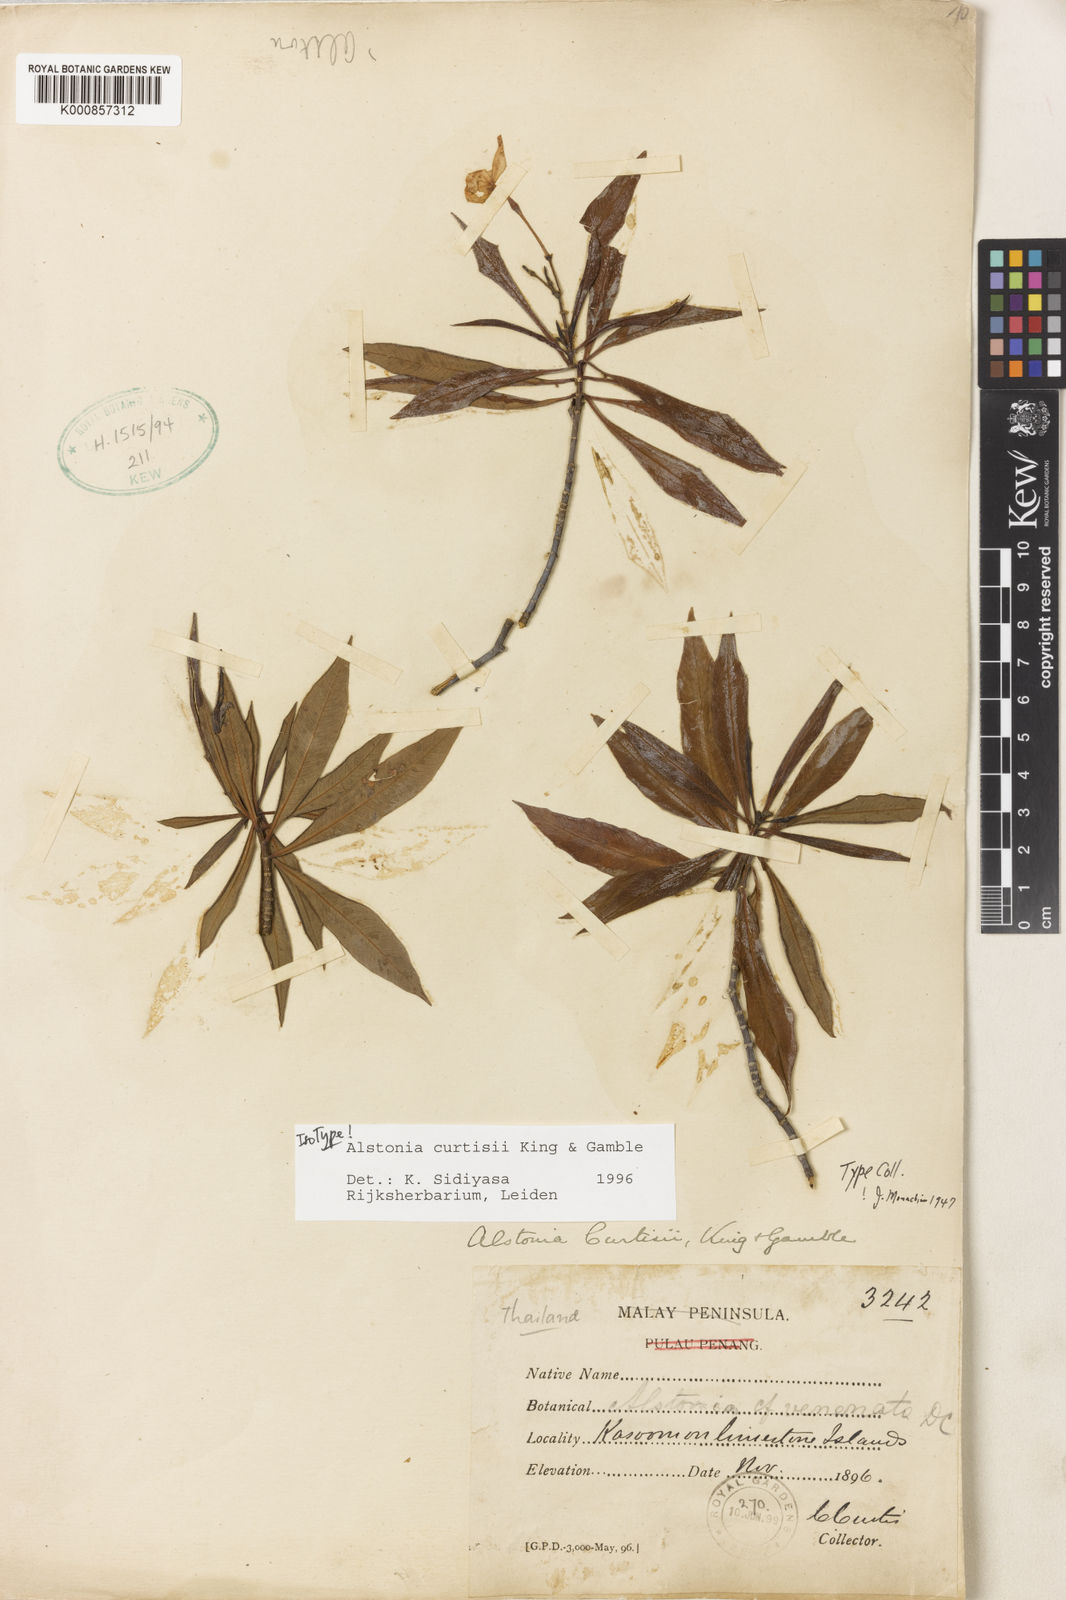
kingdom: Plantae
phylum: Tracheophyta
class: Magnoliopsida
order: Gentianales
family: Apocynaceae
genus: Alstonia
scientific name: Alstonia curtisii
